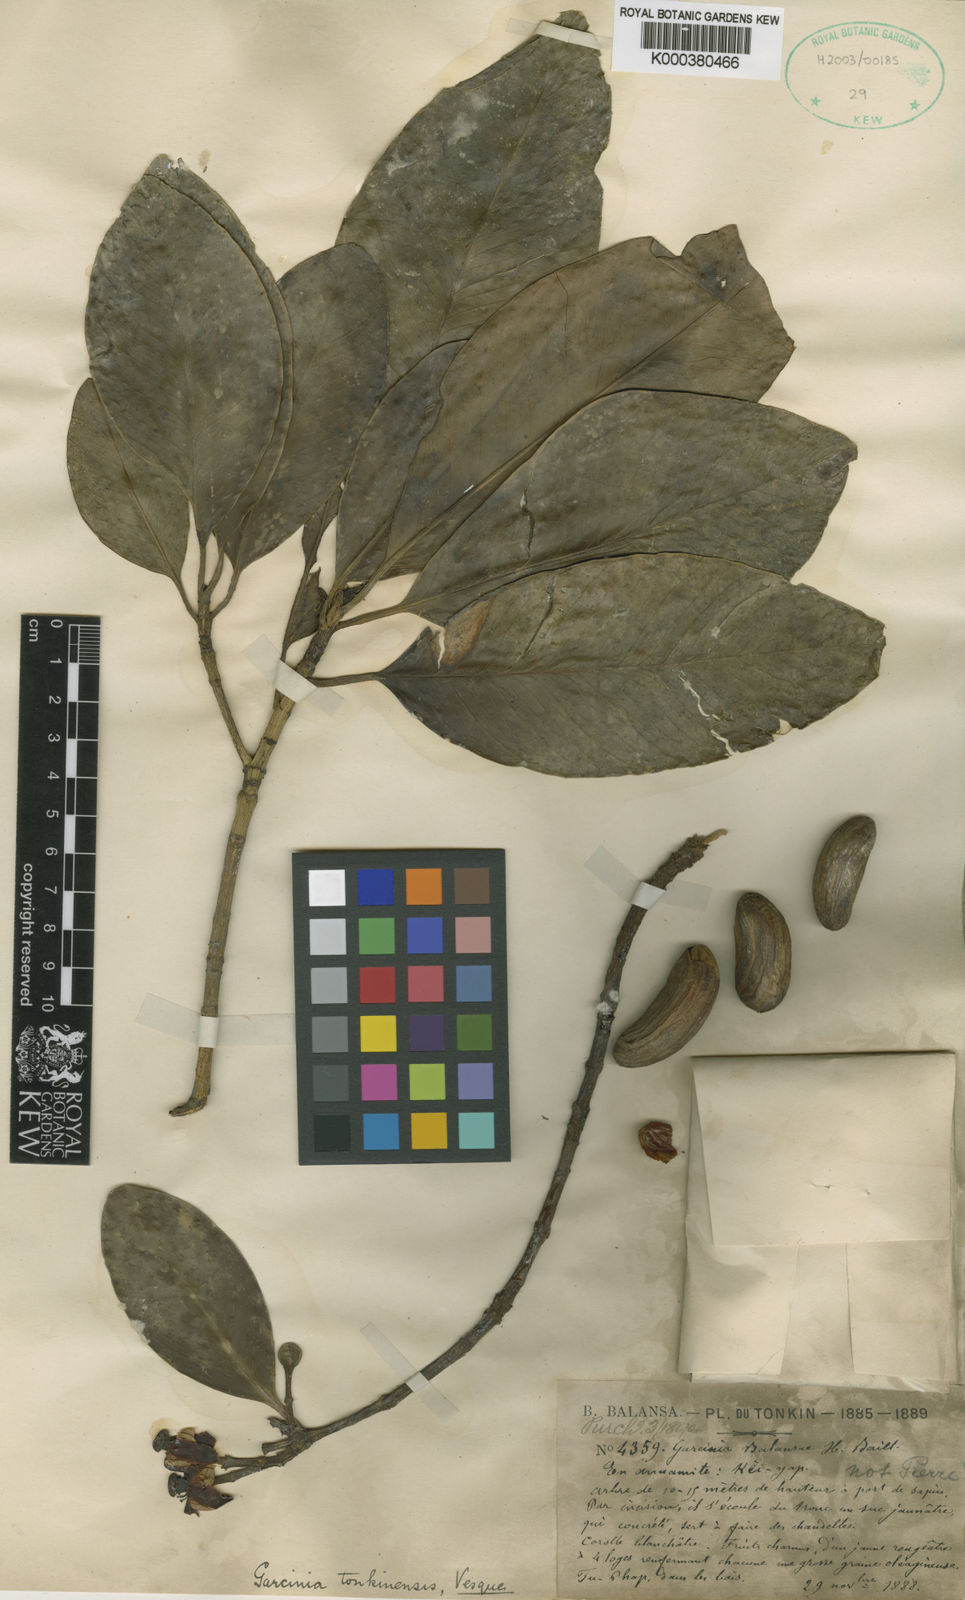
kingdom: Plantae
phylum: Tracheophyta
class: Magnoliopsida
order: Malpighiales
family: Clusiaceae
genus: Garcinia
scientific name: Garcinia tonkinensis
